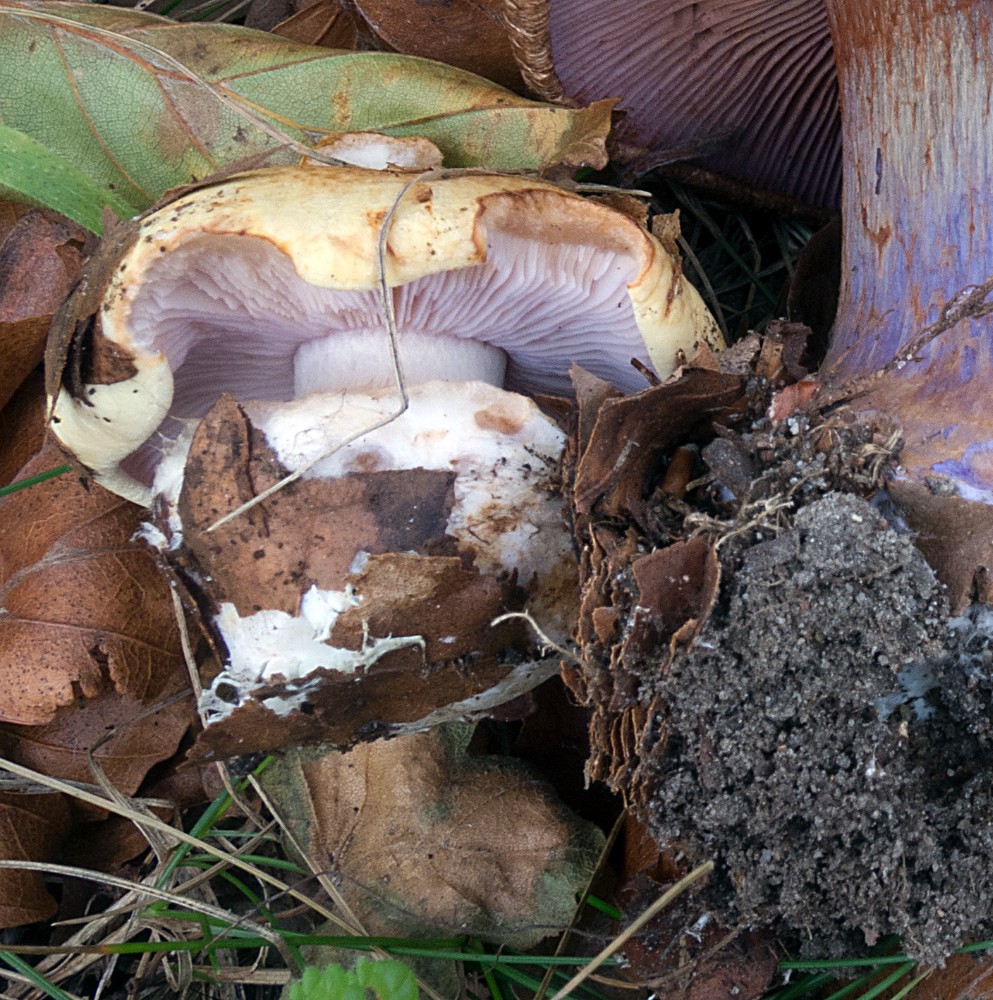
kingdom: Fungi
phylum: Basidiomycota
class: Agaricomycetes
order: Agaricales
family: Cortinariaceae
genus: Calonarius
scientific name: Calonarius lilacinovelatus
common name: violetknoldet slørhat
